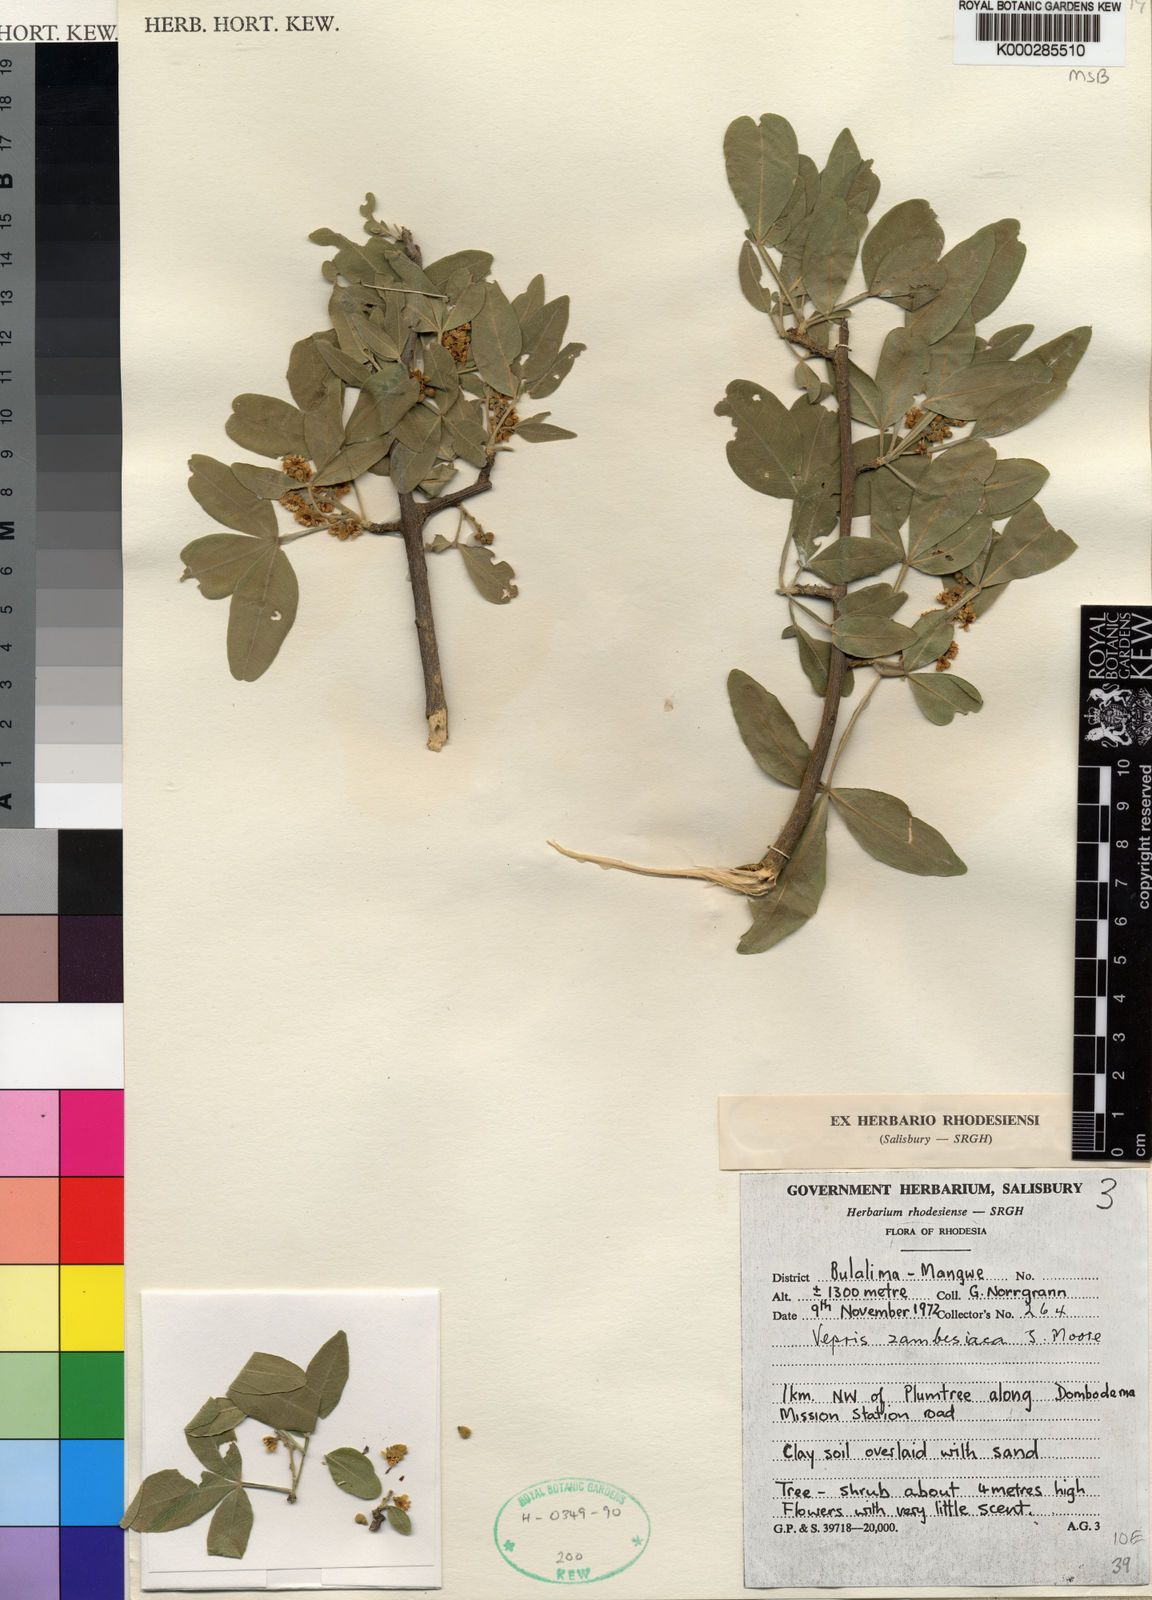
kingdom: Plantae
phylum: Tracheophyta
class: Magnoliopsida
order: Sapindales
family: Rutaceae
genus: Vepris
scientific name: Vepris zambesiaca
